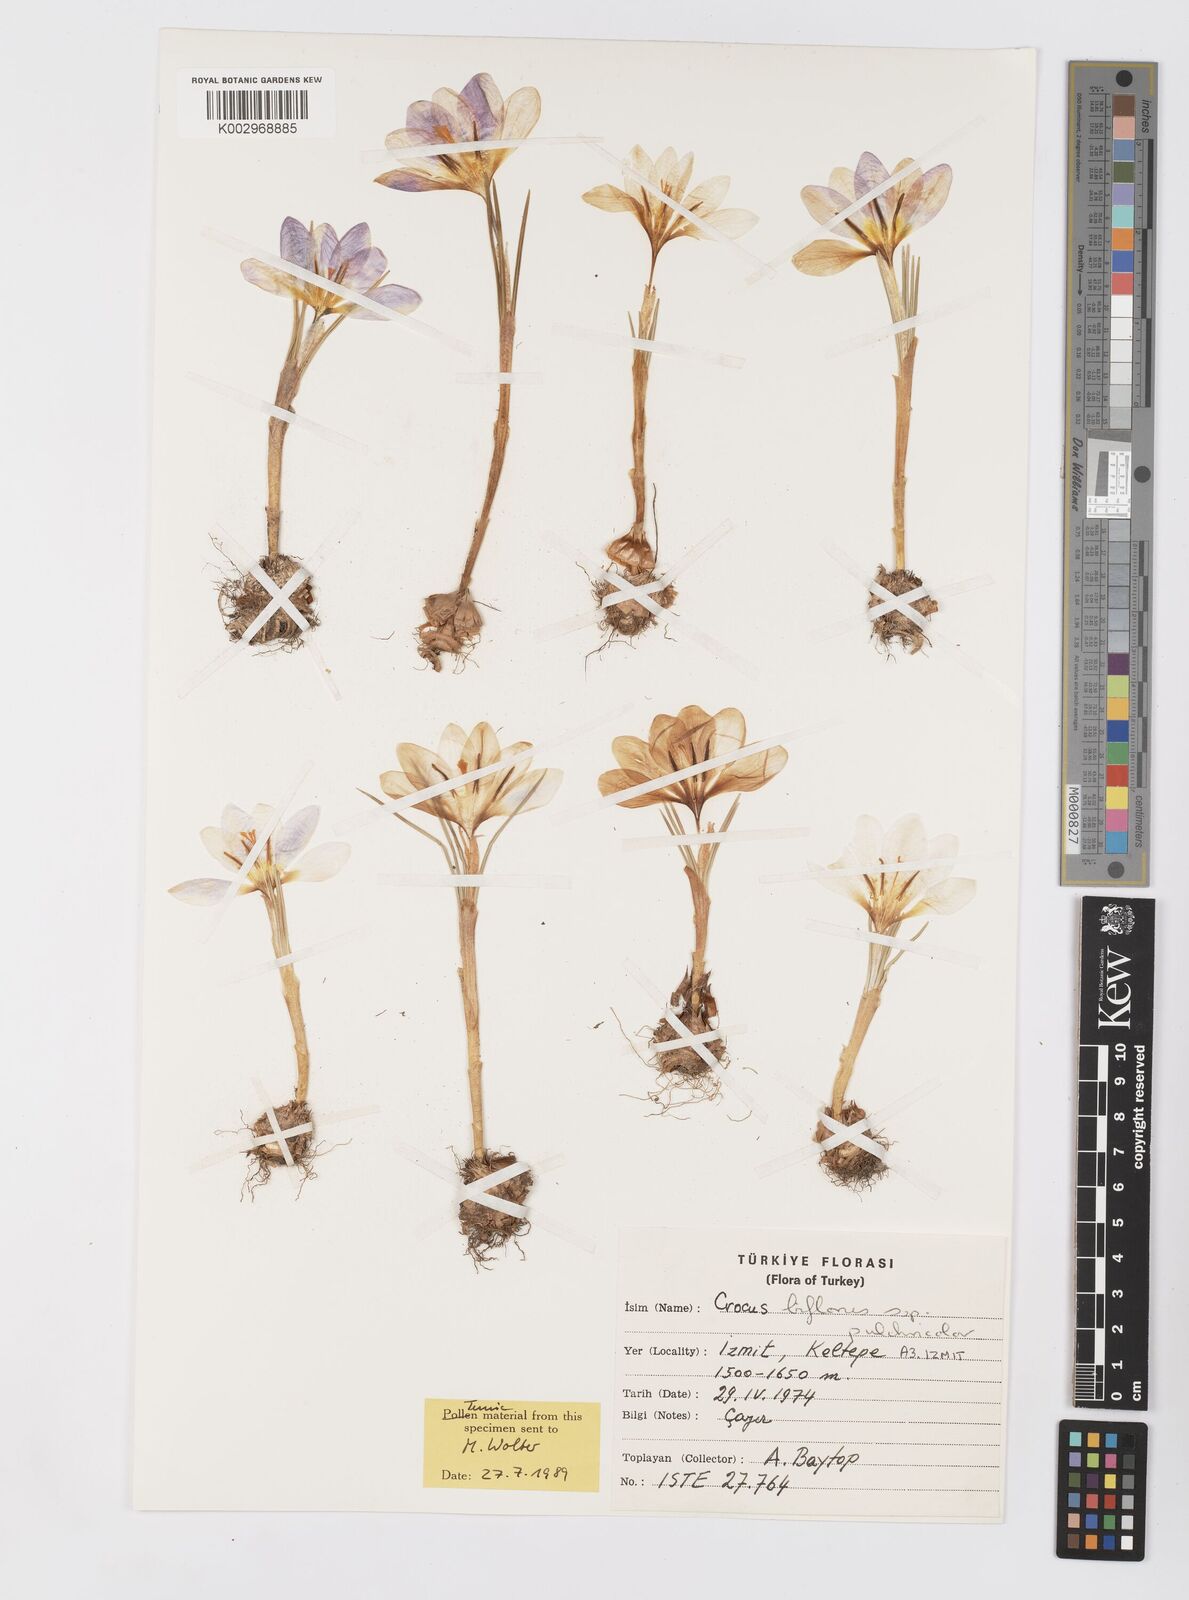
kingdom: Plantae
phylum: Tracheophyta
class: Liliopsida
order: Asparagales
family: Iridaceae
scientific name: Iridaceae
